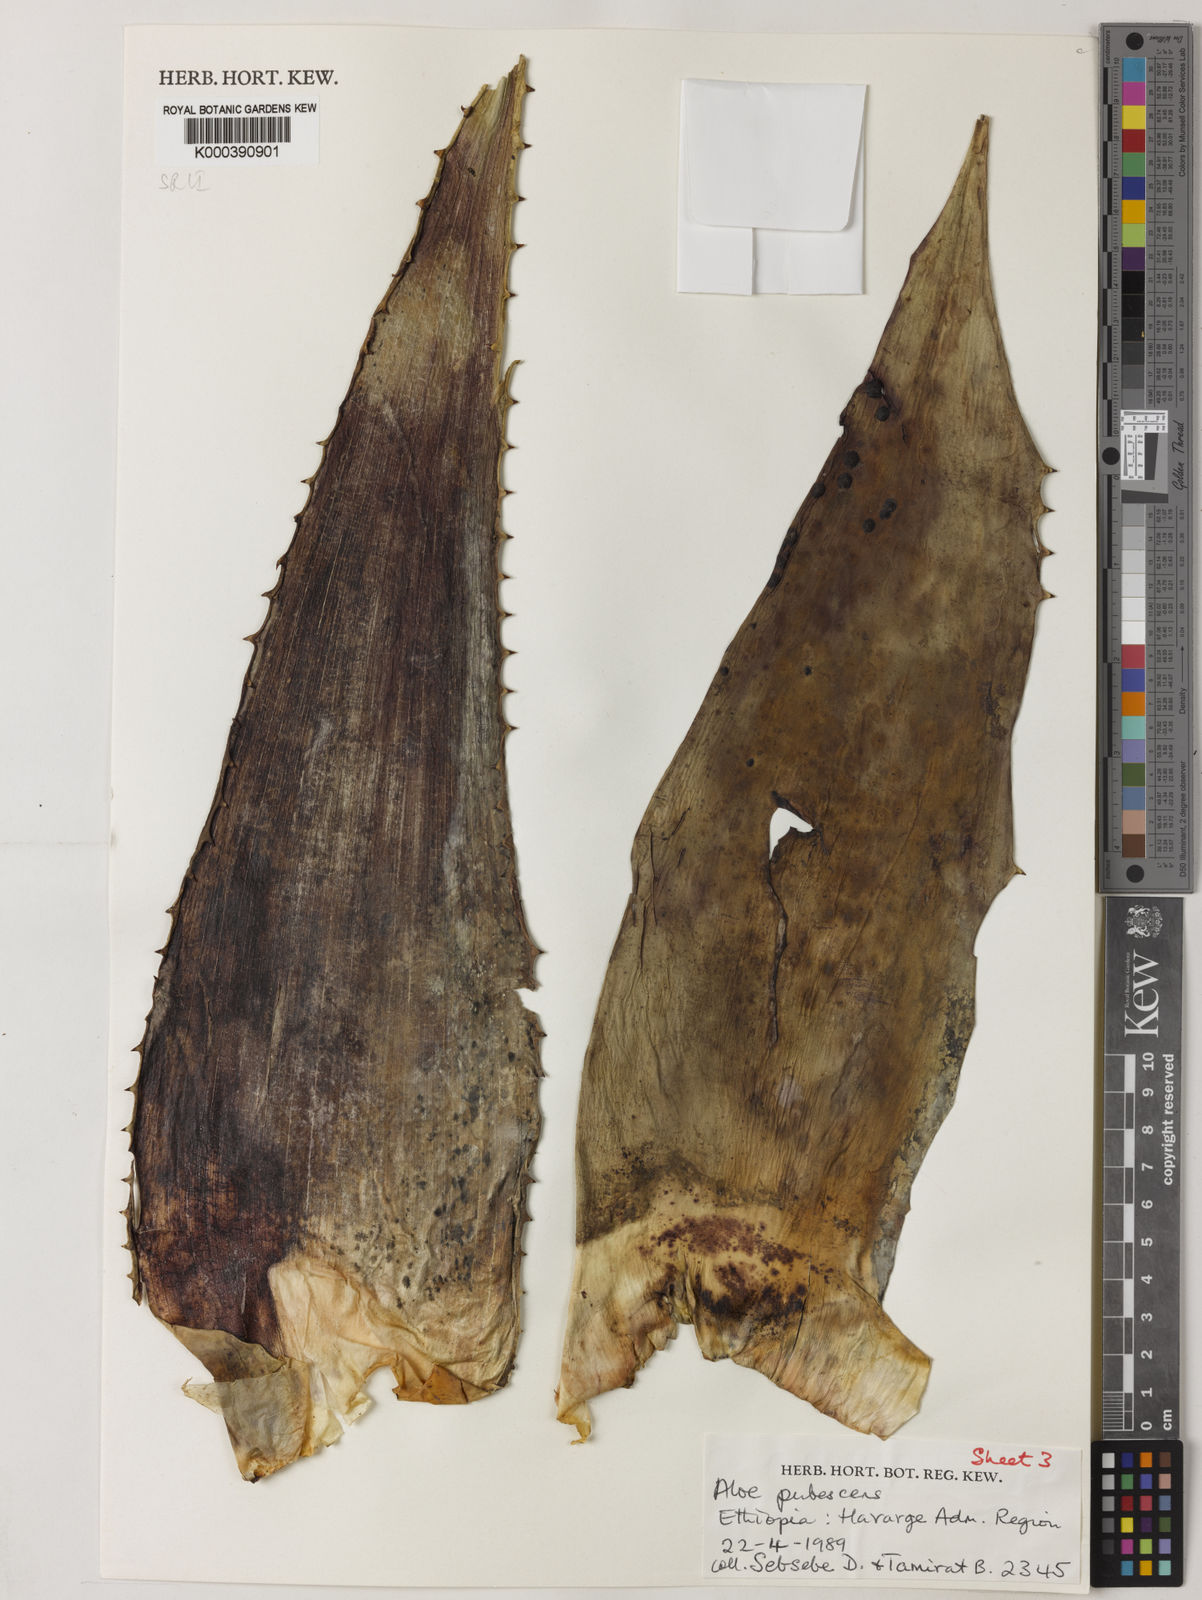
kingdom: Plantae
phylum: Tracheophyta
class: Liliopsida
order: Asparagales
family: Asphodelaceae
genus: Aloe
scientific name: Aloe pubescens
